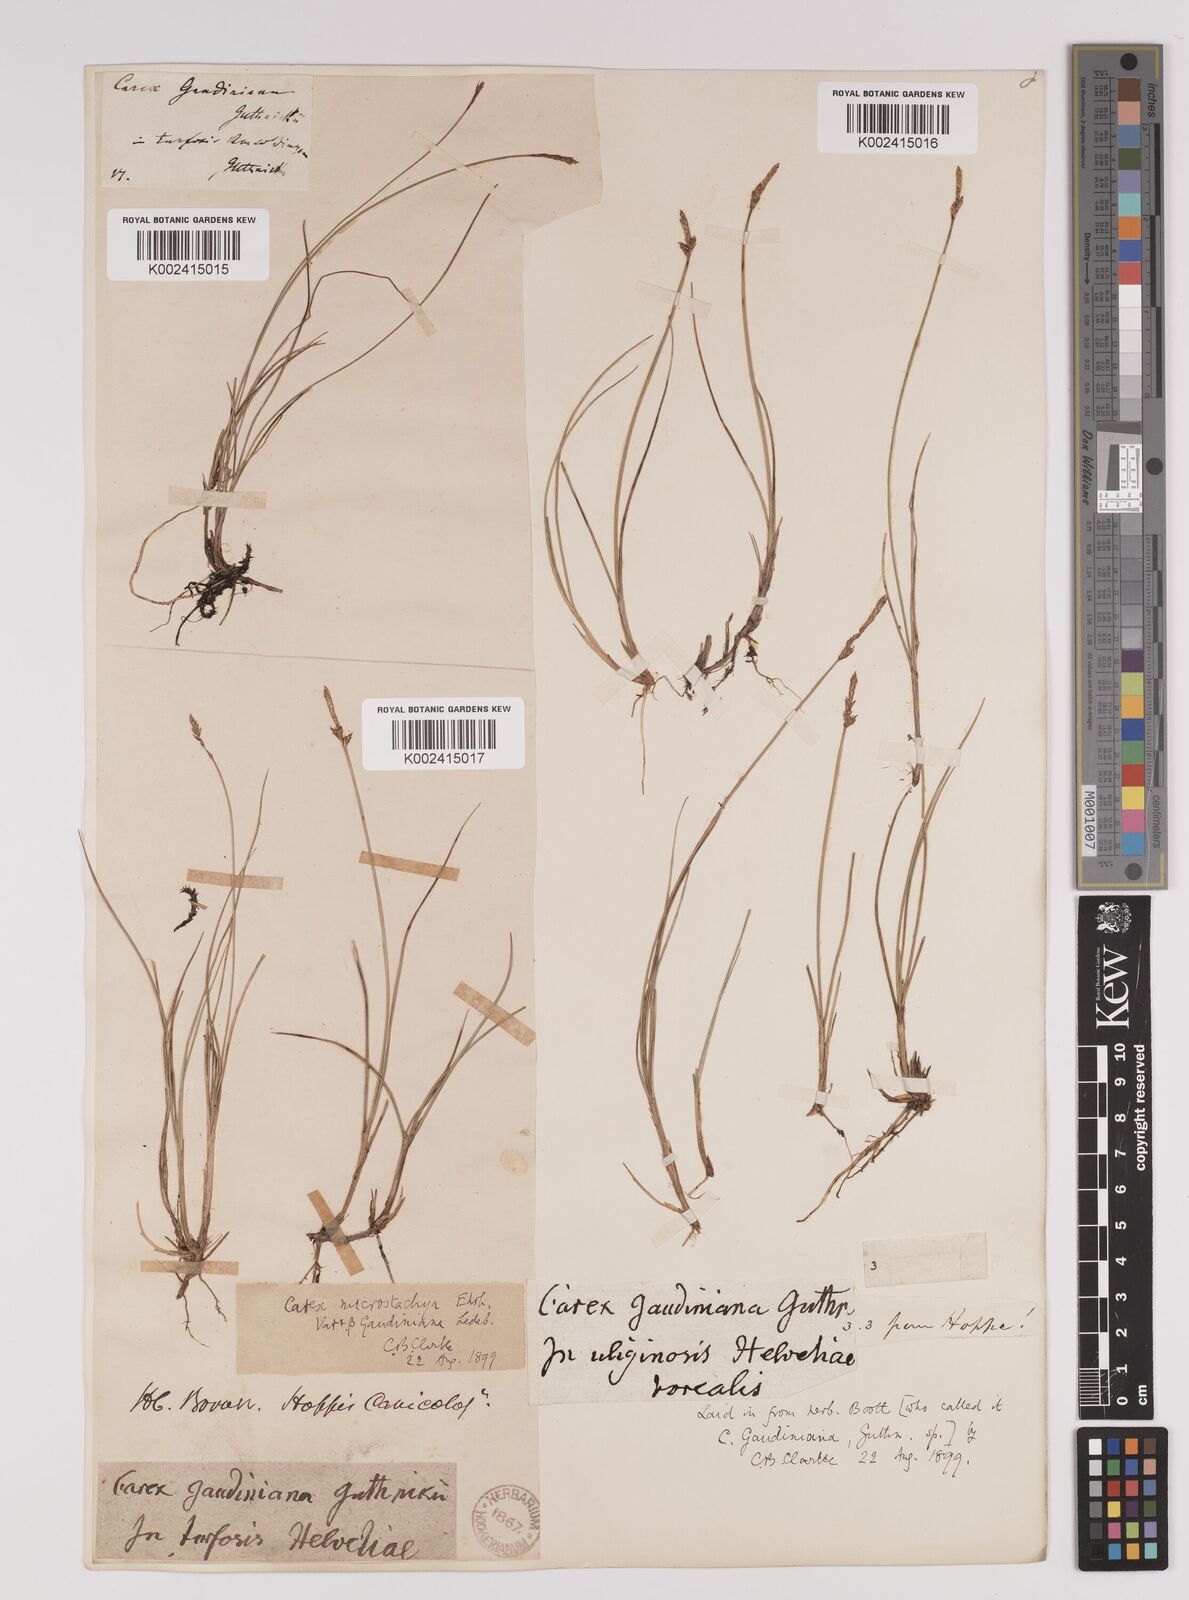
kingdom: Plantae
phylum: Tracheophyta
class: Liliopsida
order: Poales
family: Cyperaceae
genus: Carex
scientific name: Carex dioica
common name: Dioecious sedge
